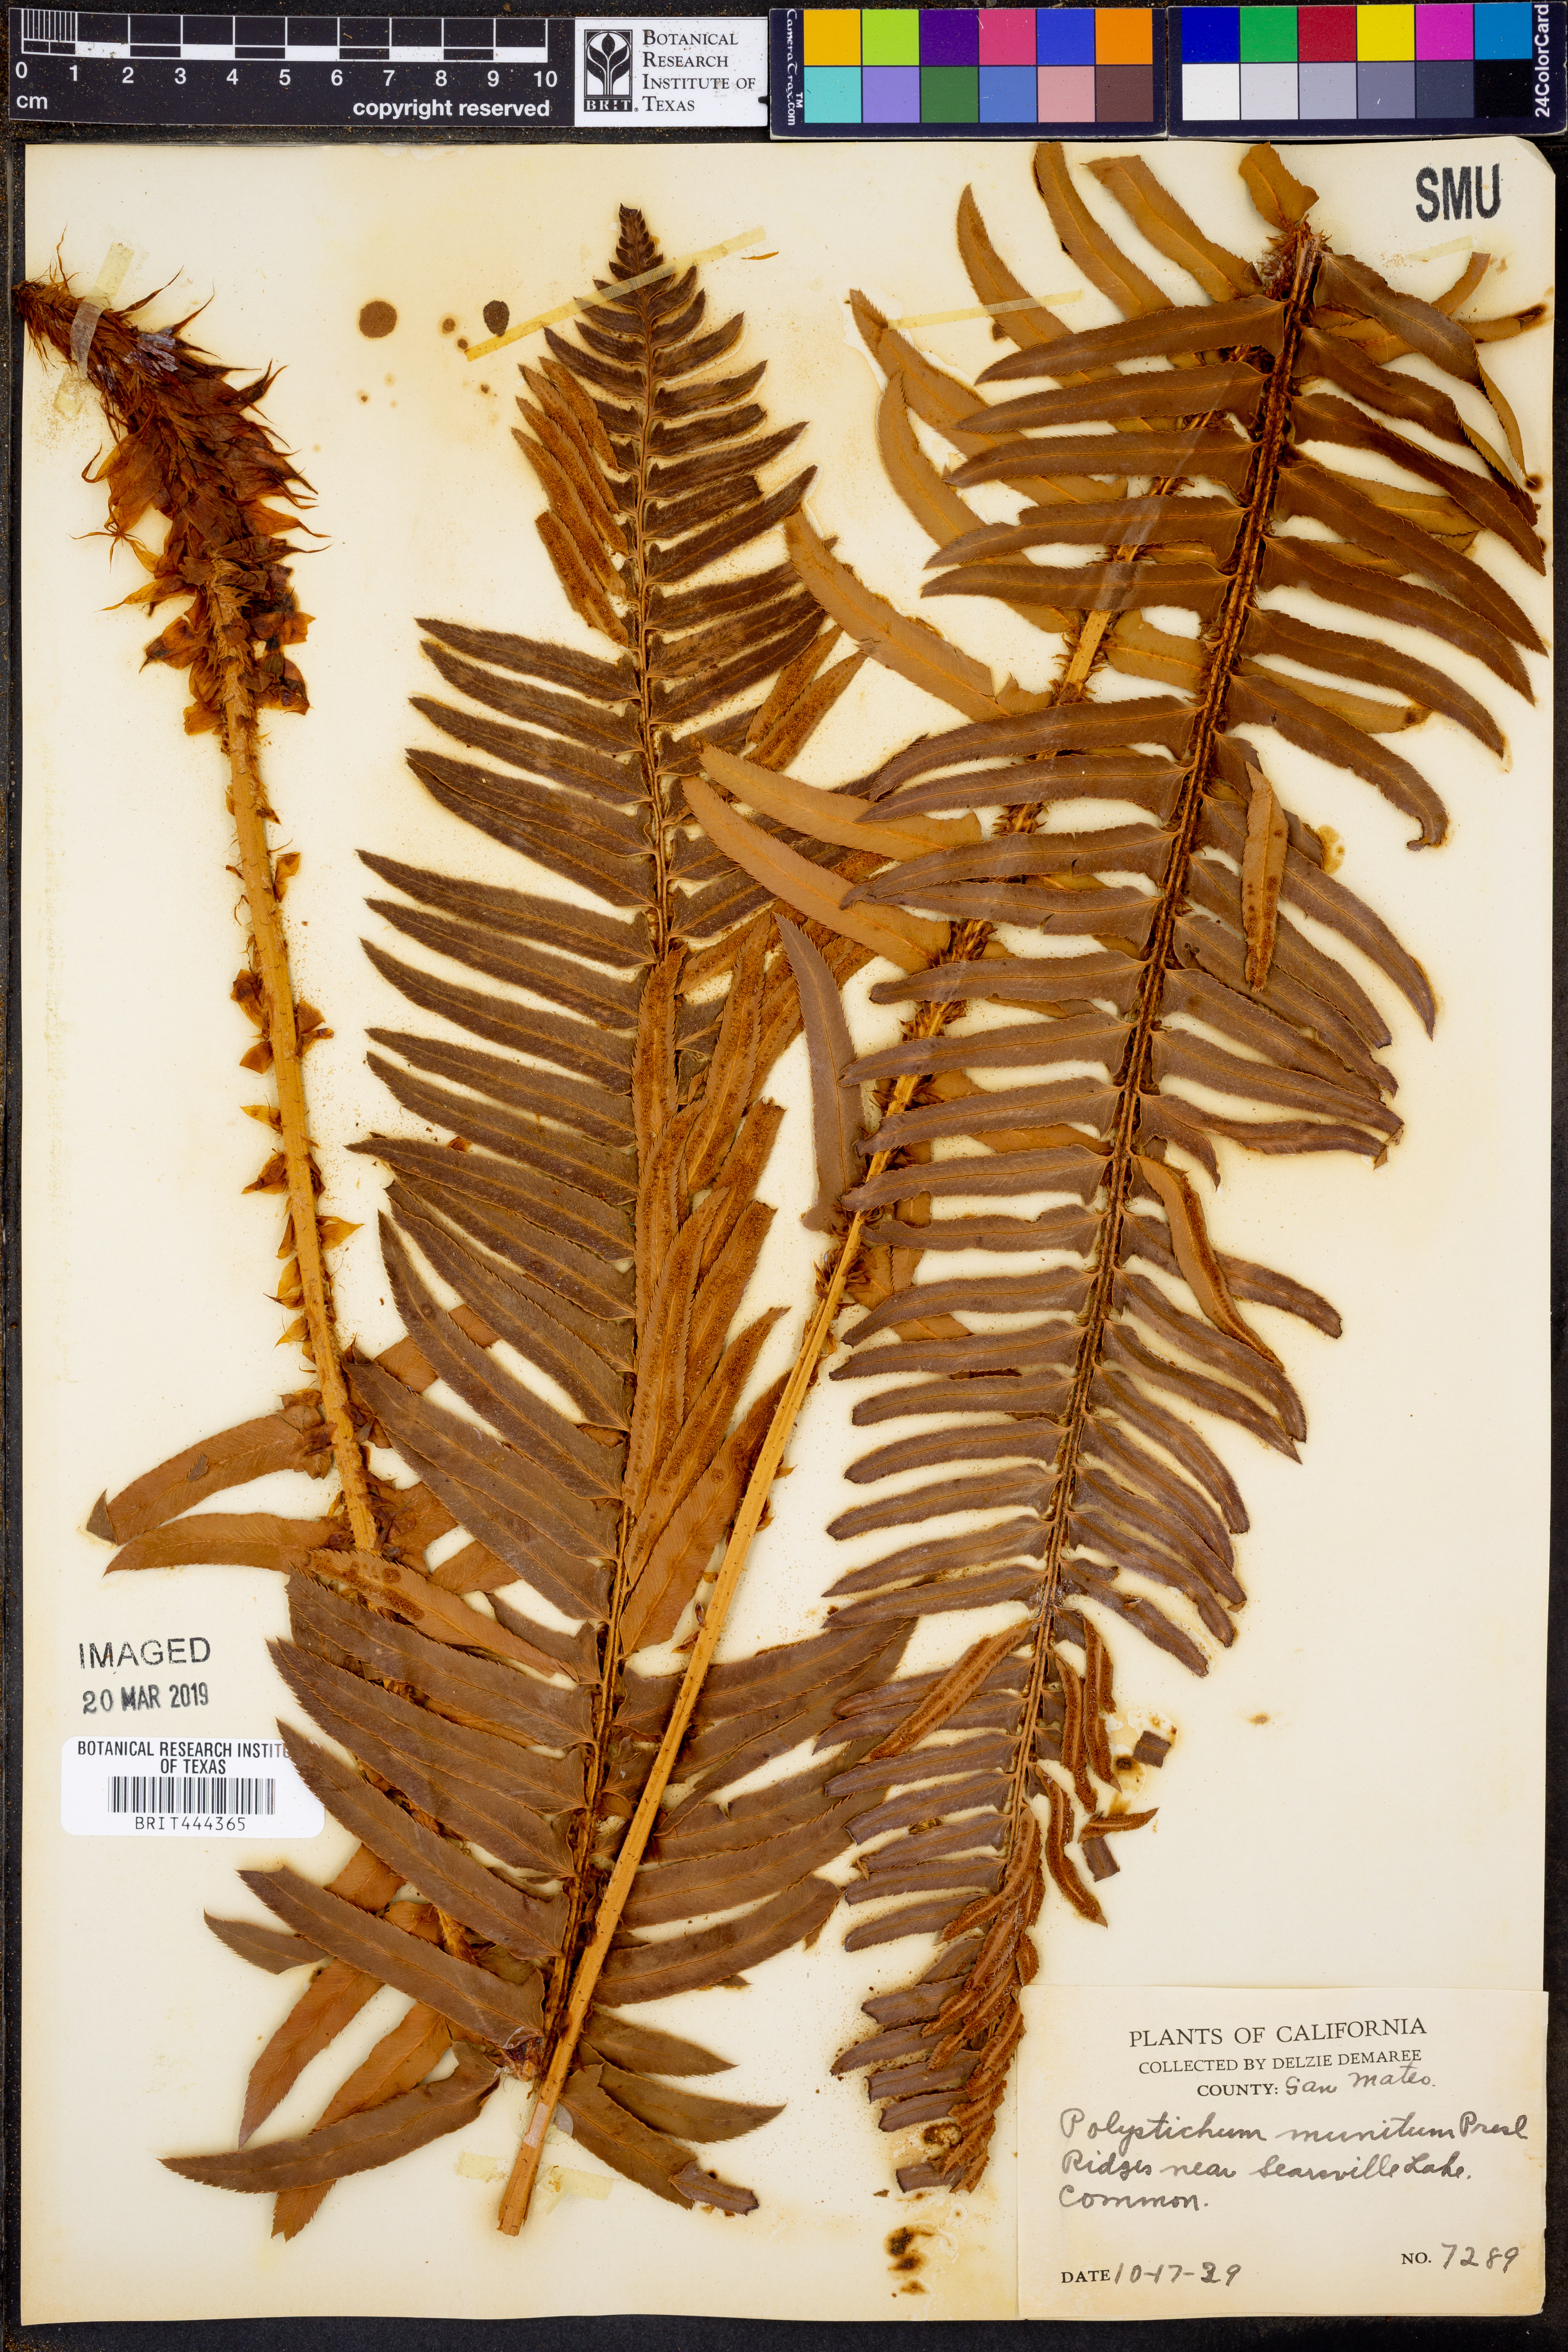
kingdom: Plantae
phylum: Tracheophyta
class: Polypodiopsida
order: Polypodiales
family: Dryopteridaceae
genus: Polystichum
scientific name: Polystichum munitum
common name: Western sword-fern
